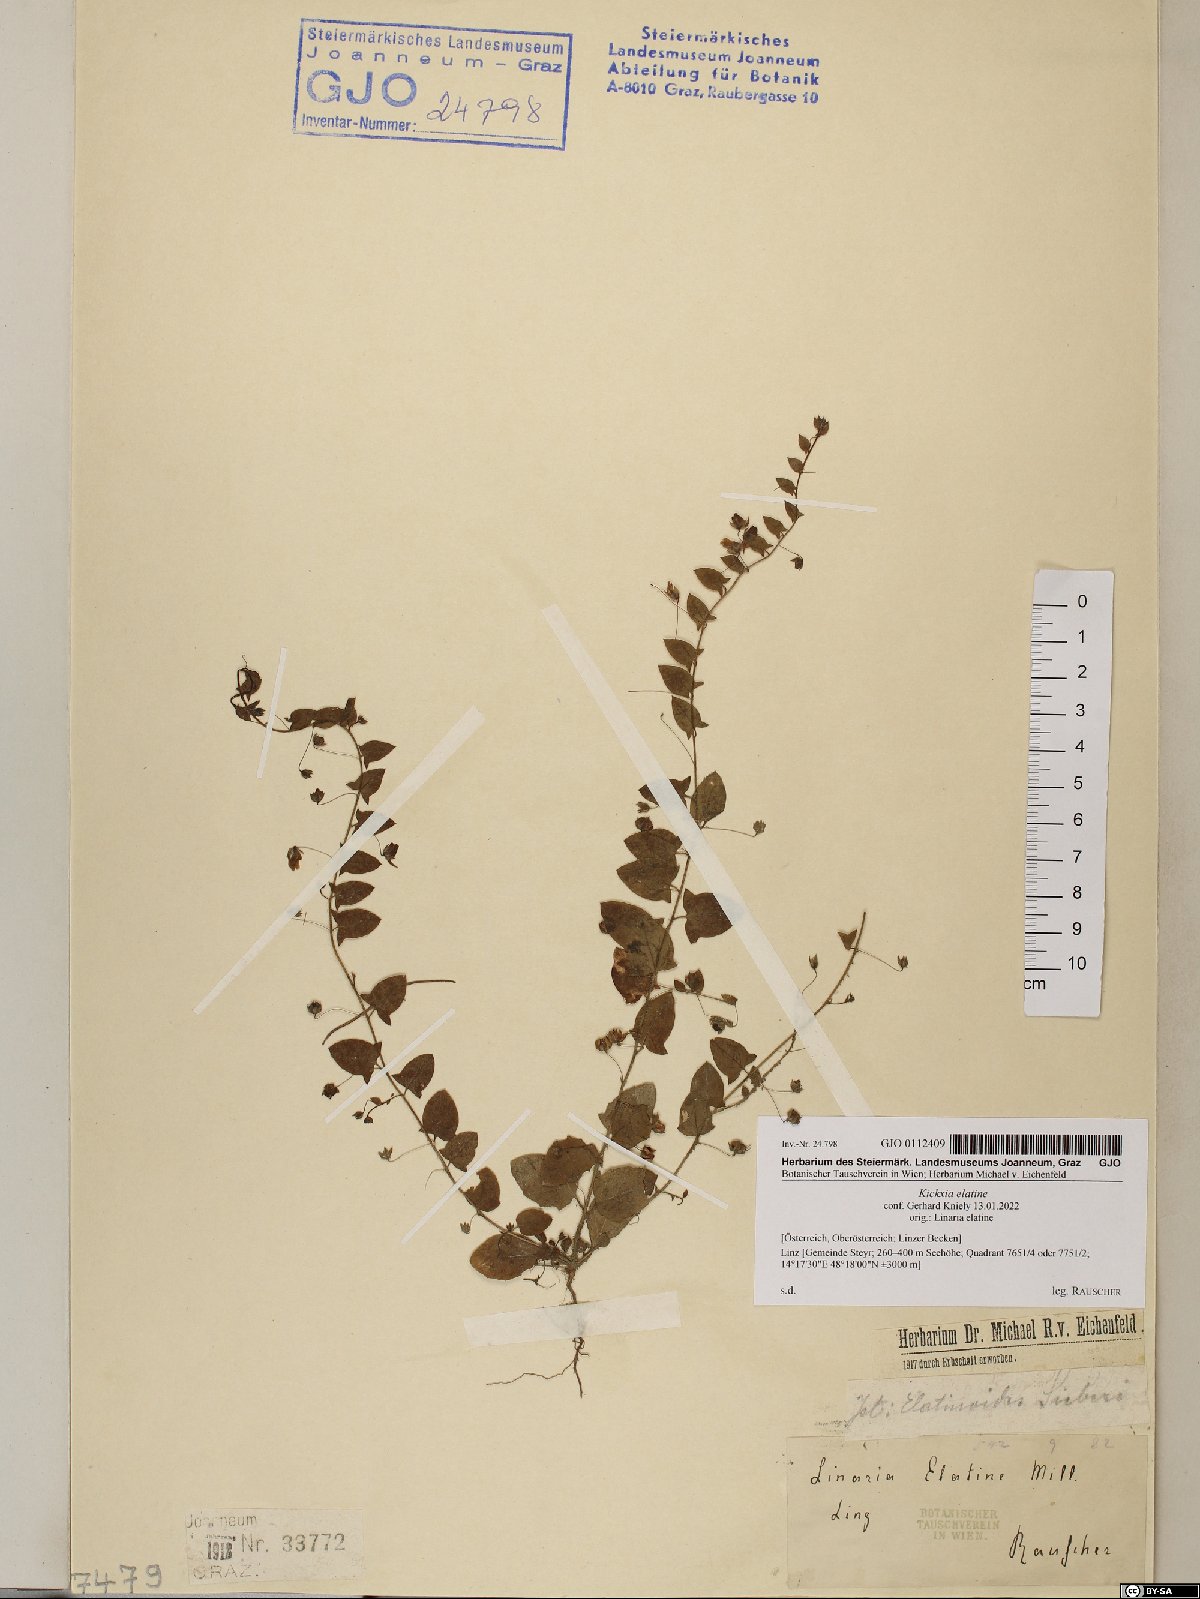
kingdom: Plantae
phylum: Tracheophyta
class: Magnoliopsida
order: Lamiales
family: Plantaginaceae
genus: Kickxia
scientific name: Kickxia elatine
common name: Sharp-leaved fluellen
